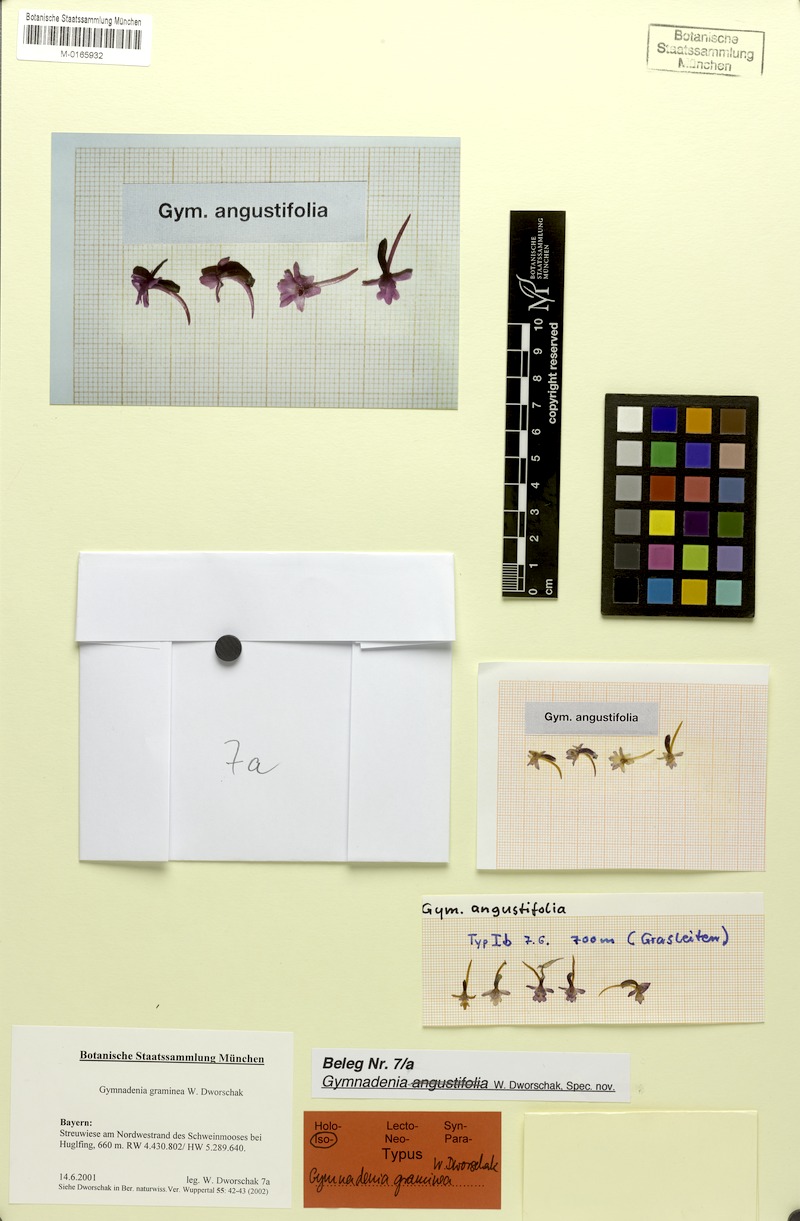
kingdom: Plantae
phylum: Tracheophyta
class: Liliopsida
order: Asparagales
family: Orchidaceae
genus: Gymnadenia
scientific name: Gymnadenia odoratissima
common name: Scented gymnadenia
